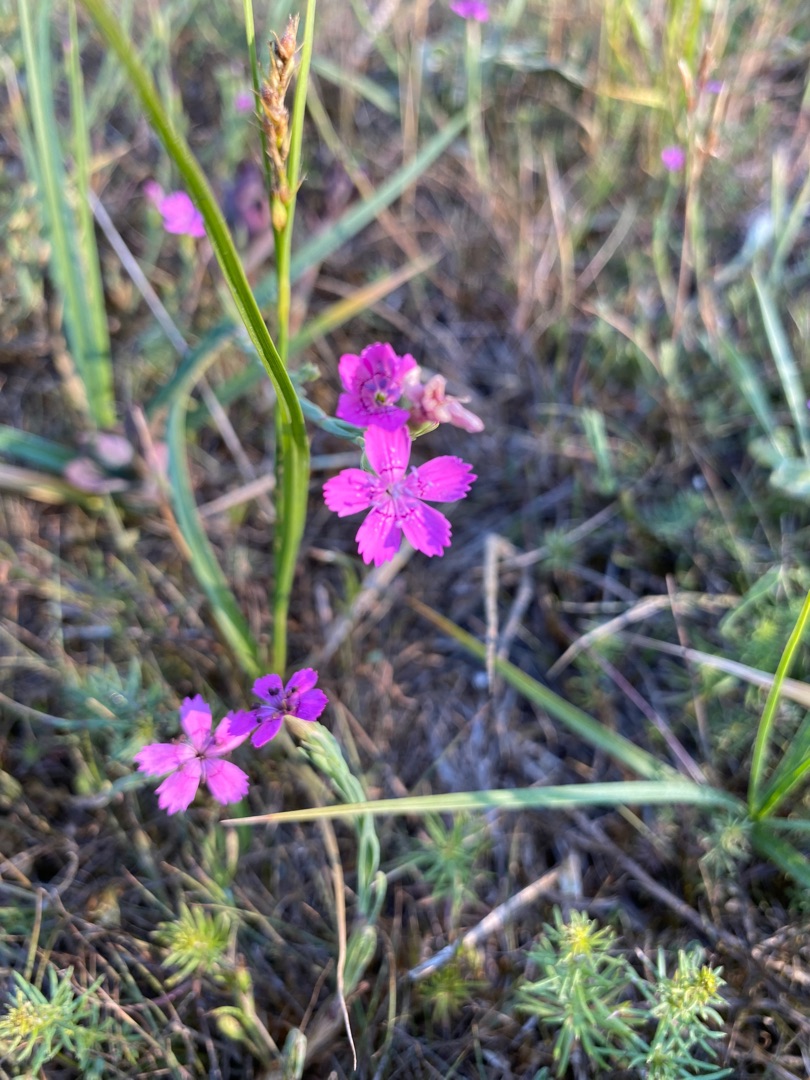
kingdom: Plantae
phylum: Tracheophyta
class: Magnoliopsida
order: Caryophyllales
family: Caryophyllaceae
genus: Dianthus
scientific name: Dianthus deltoides
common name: Bakke-nellike
